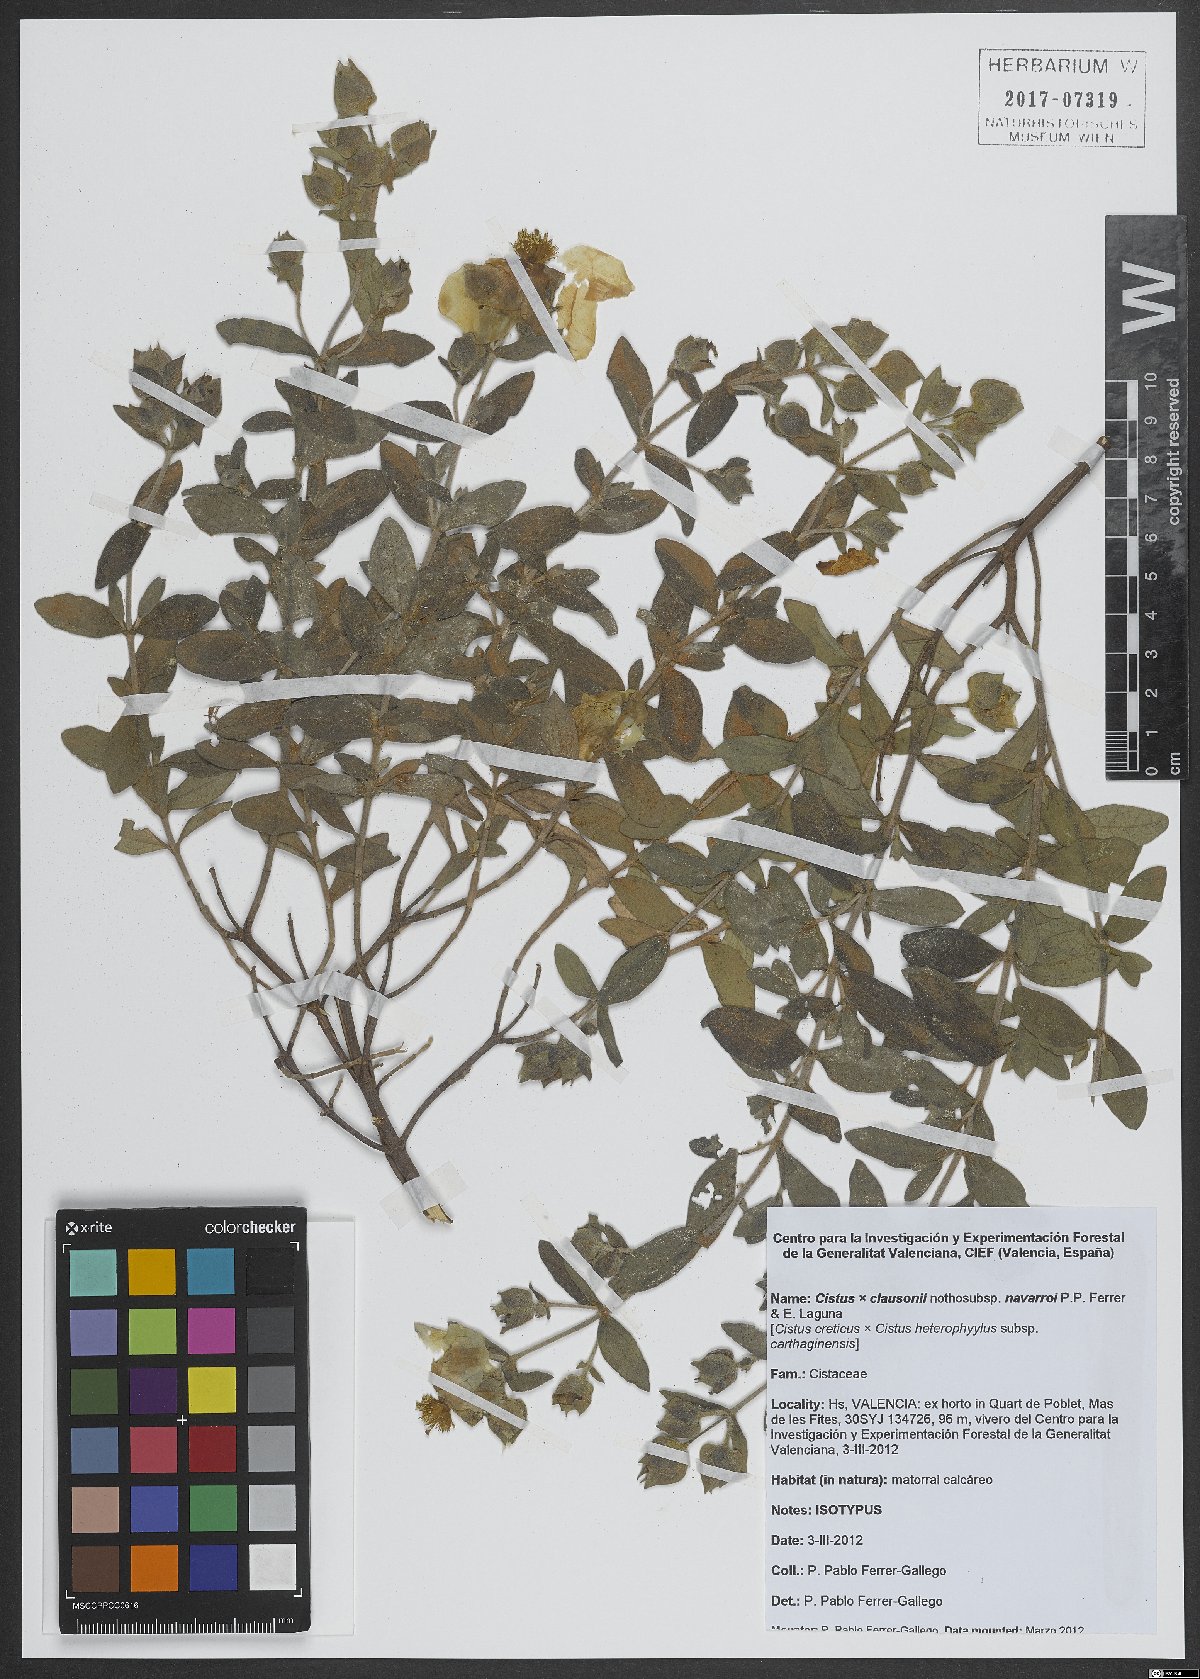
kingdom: Plantae
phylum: Tracheophyta
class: Magnoliopsida
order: Malvales
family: Cistaceae
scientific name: Cistaceae
